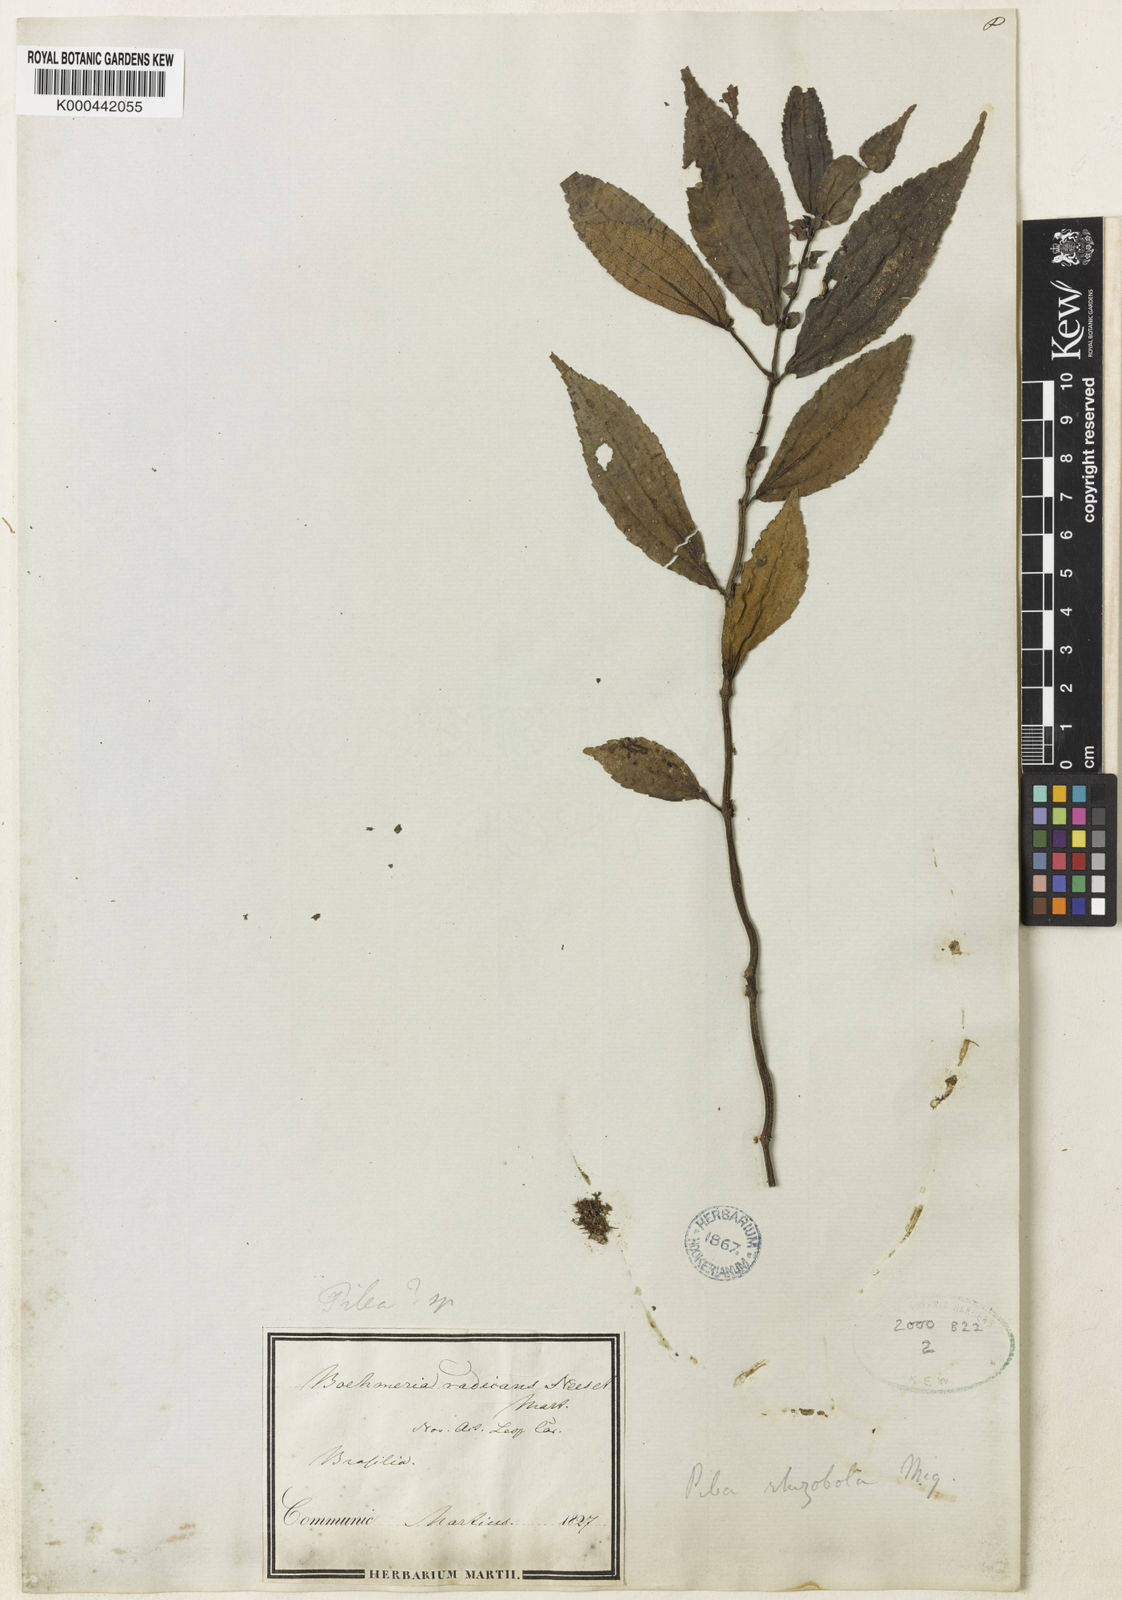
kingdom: Plantae
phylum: Tracheophyta
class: Magnoliopsida
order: Rosales
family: Urticaceae
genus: Pilea
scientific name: Pilea rhizobola
